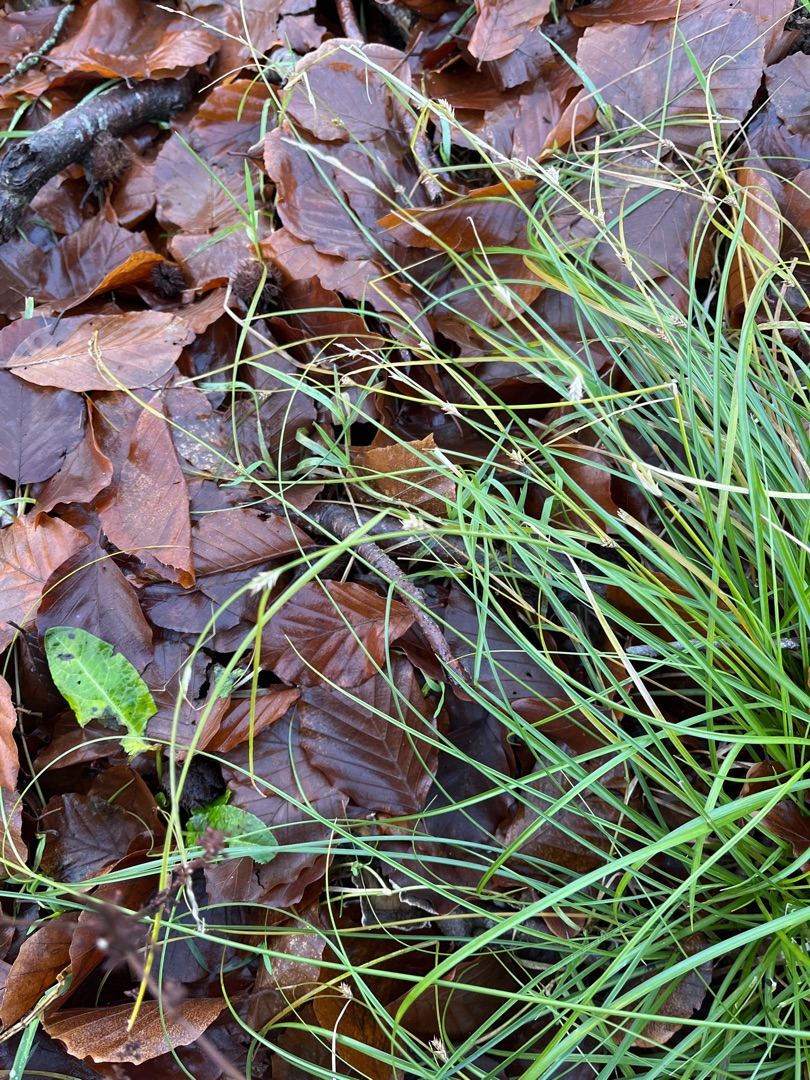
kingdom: Plantae
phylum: Tracheophyta
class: Liliopsida
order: Poales
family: Cyperaceae
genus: Carex
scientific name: Carex remota
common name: Akselblomstret star
